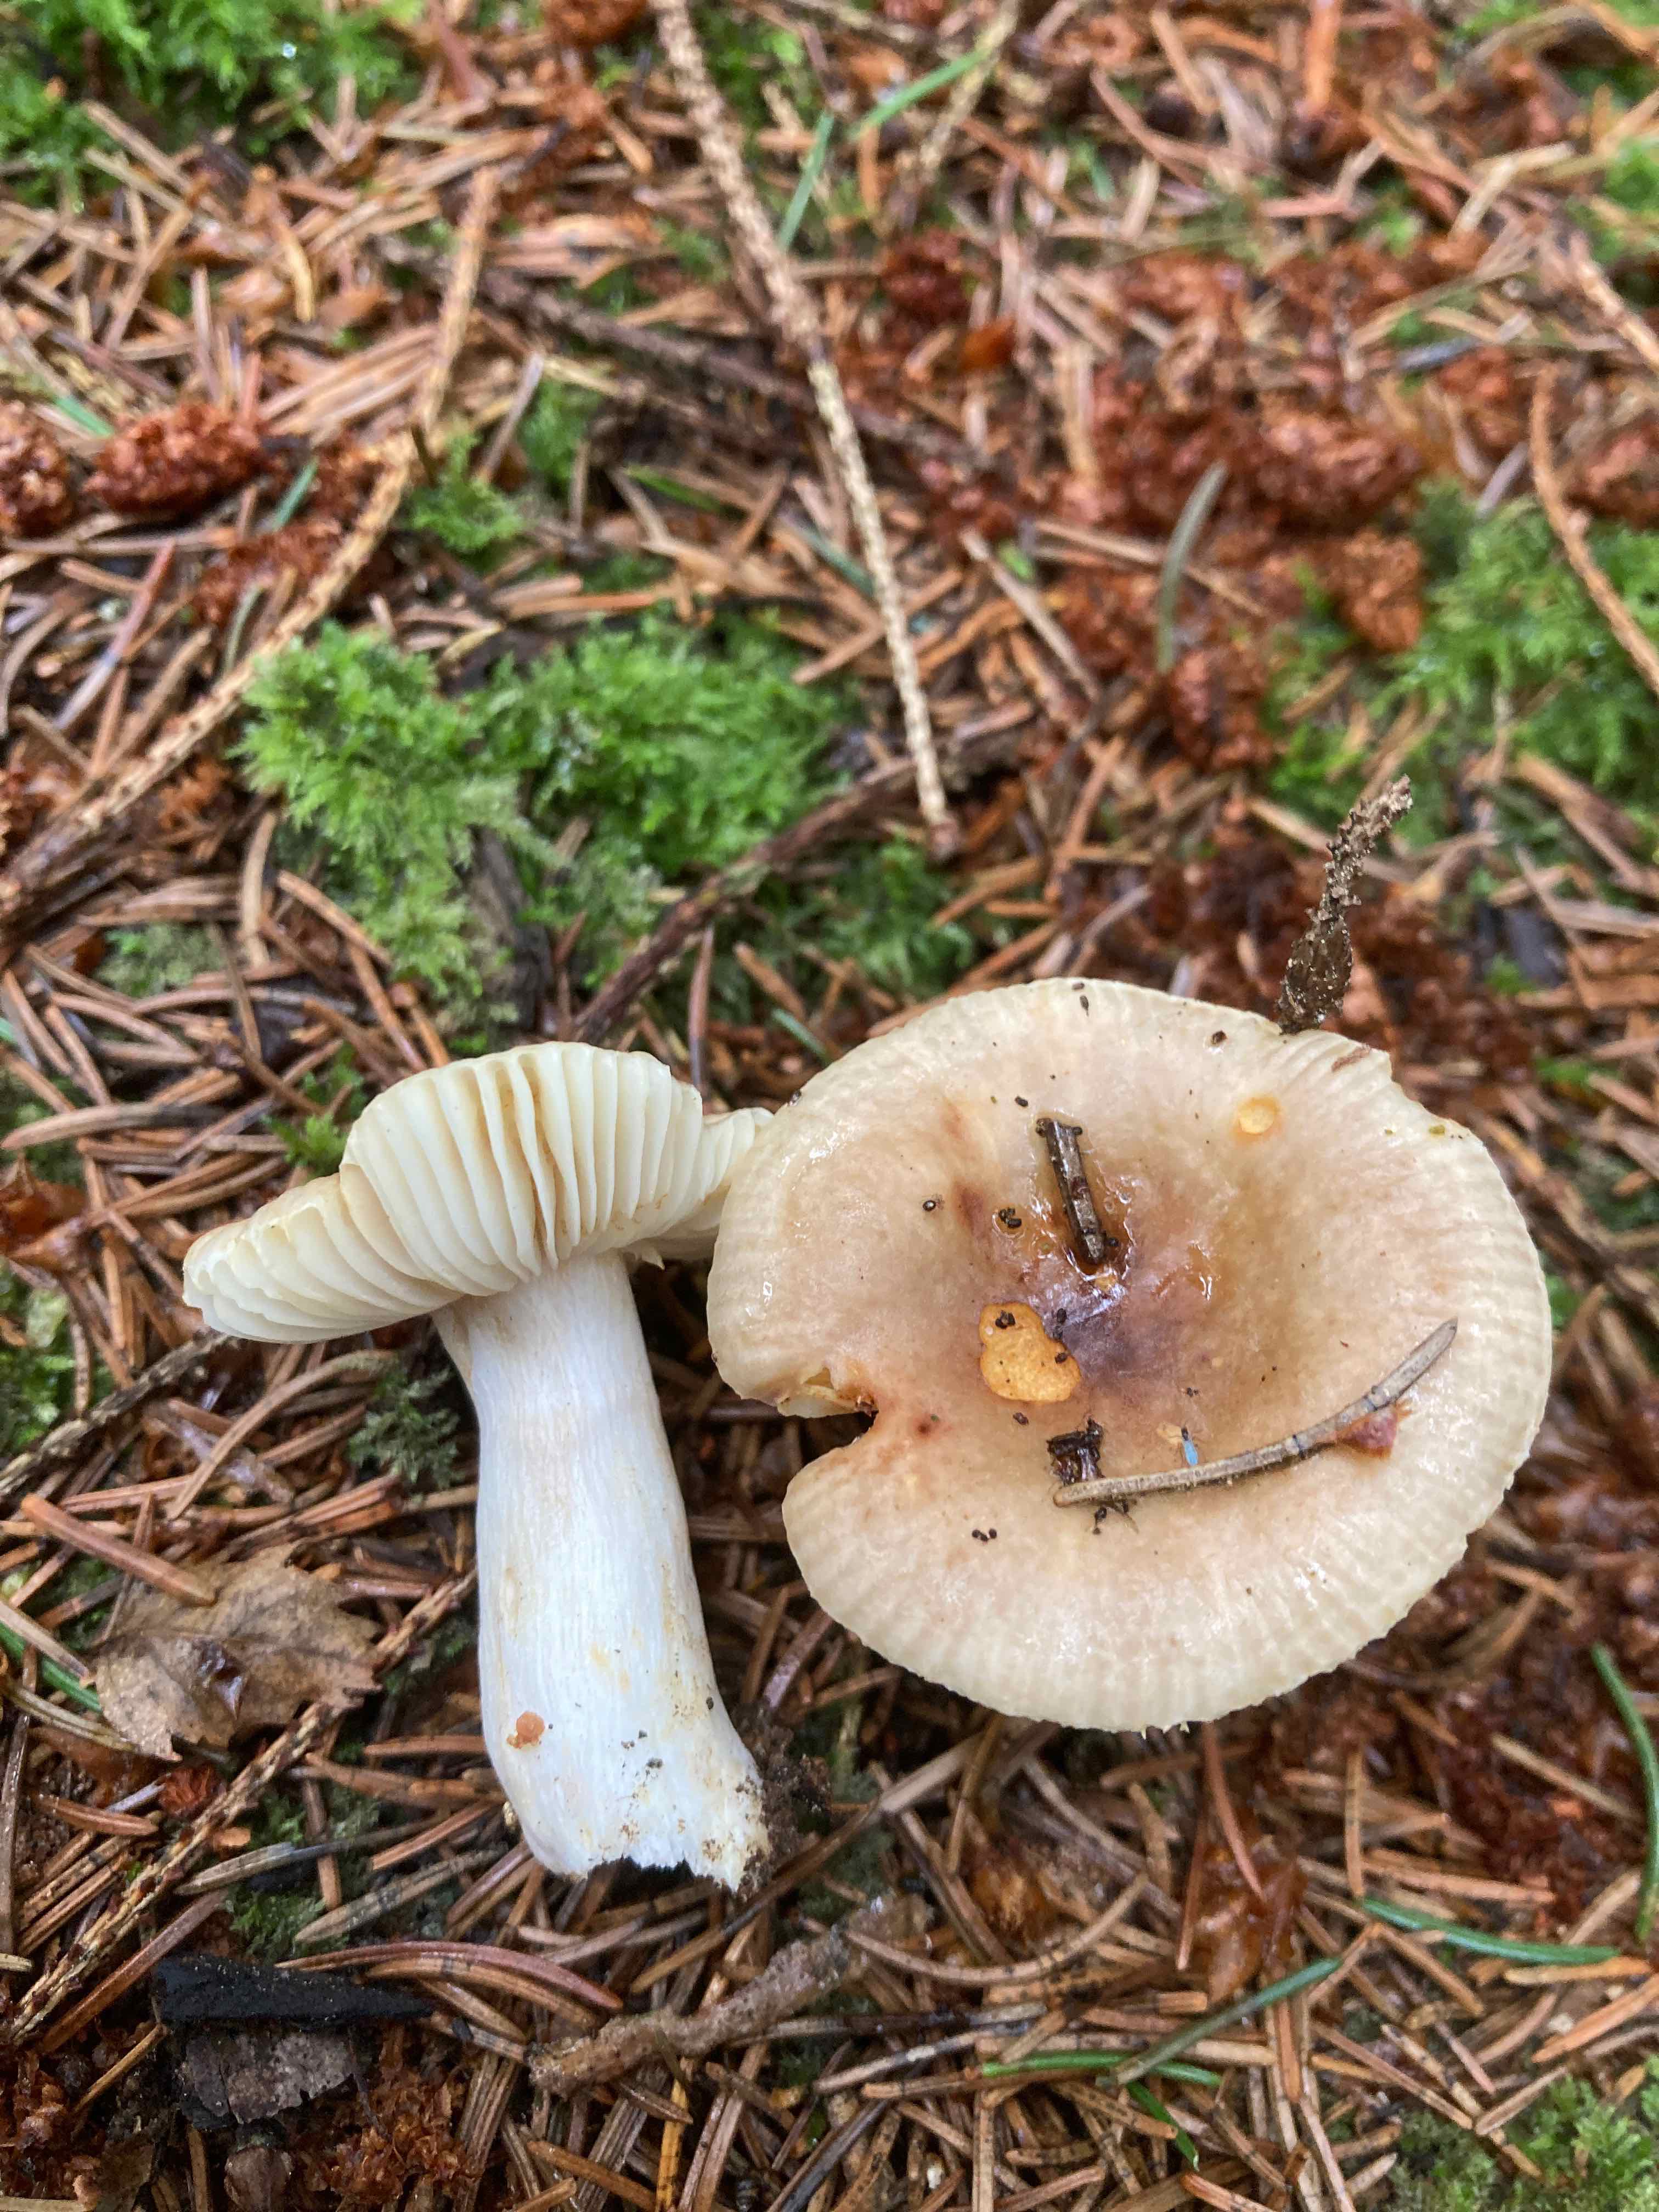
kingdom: Fungi
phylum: Basidiomycota
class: Agaricomycetes
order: Russulales
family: Russulaceae
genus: Russula
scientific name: Russula puellaris
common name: gulstokket skørhat
